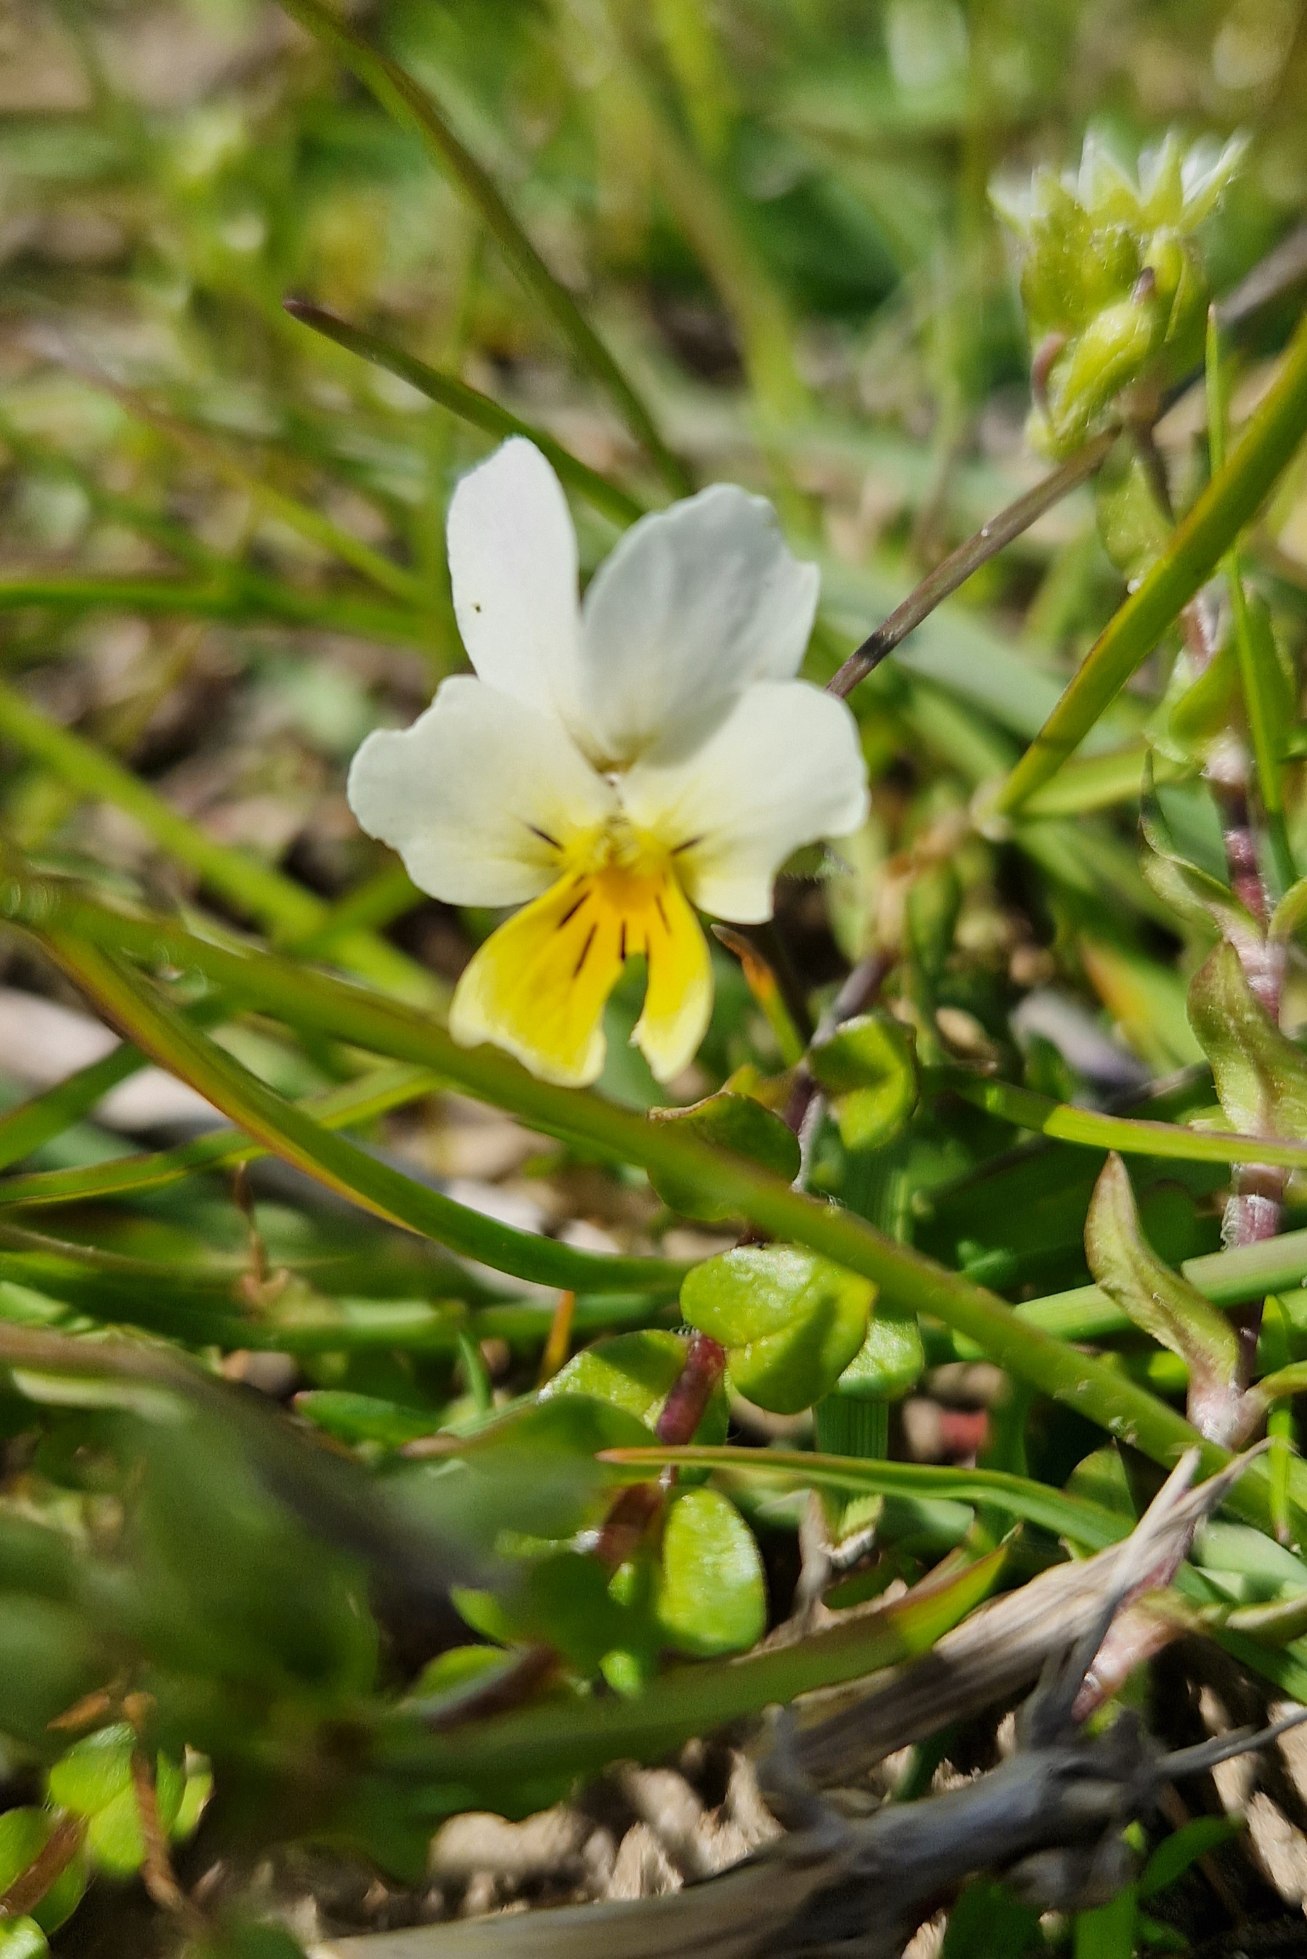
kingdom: Plantae
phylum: Tracheophyta
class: Magnoliopsida
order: Malpighiales
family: Violaceae
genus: Viola
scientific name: Viola arvensis
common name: Ager-stedmoderblomst
